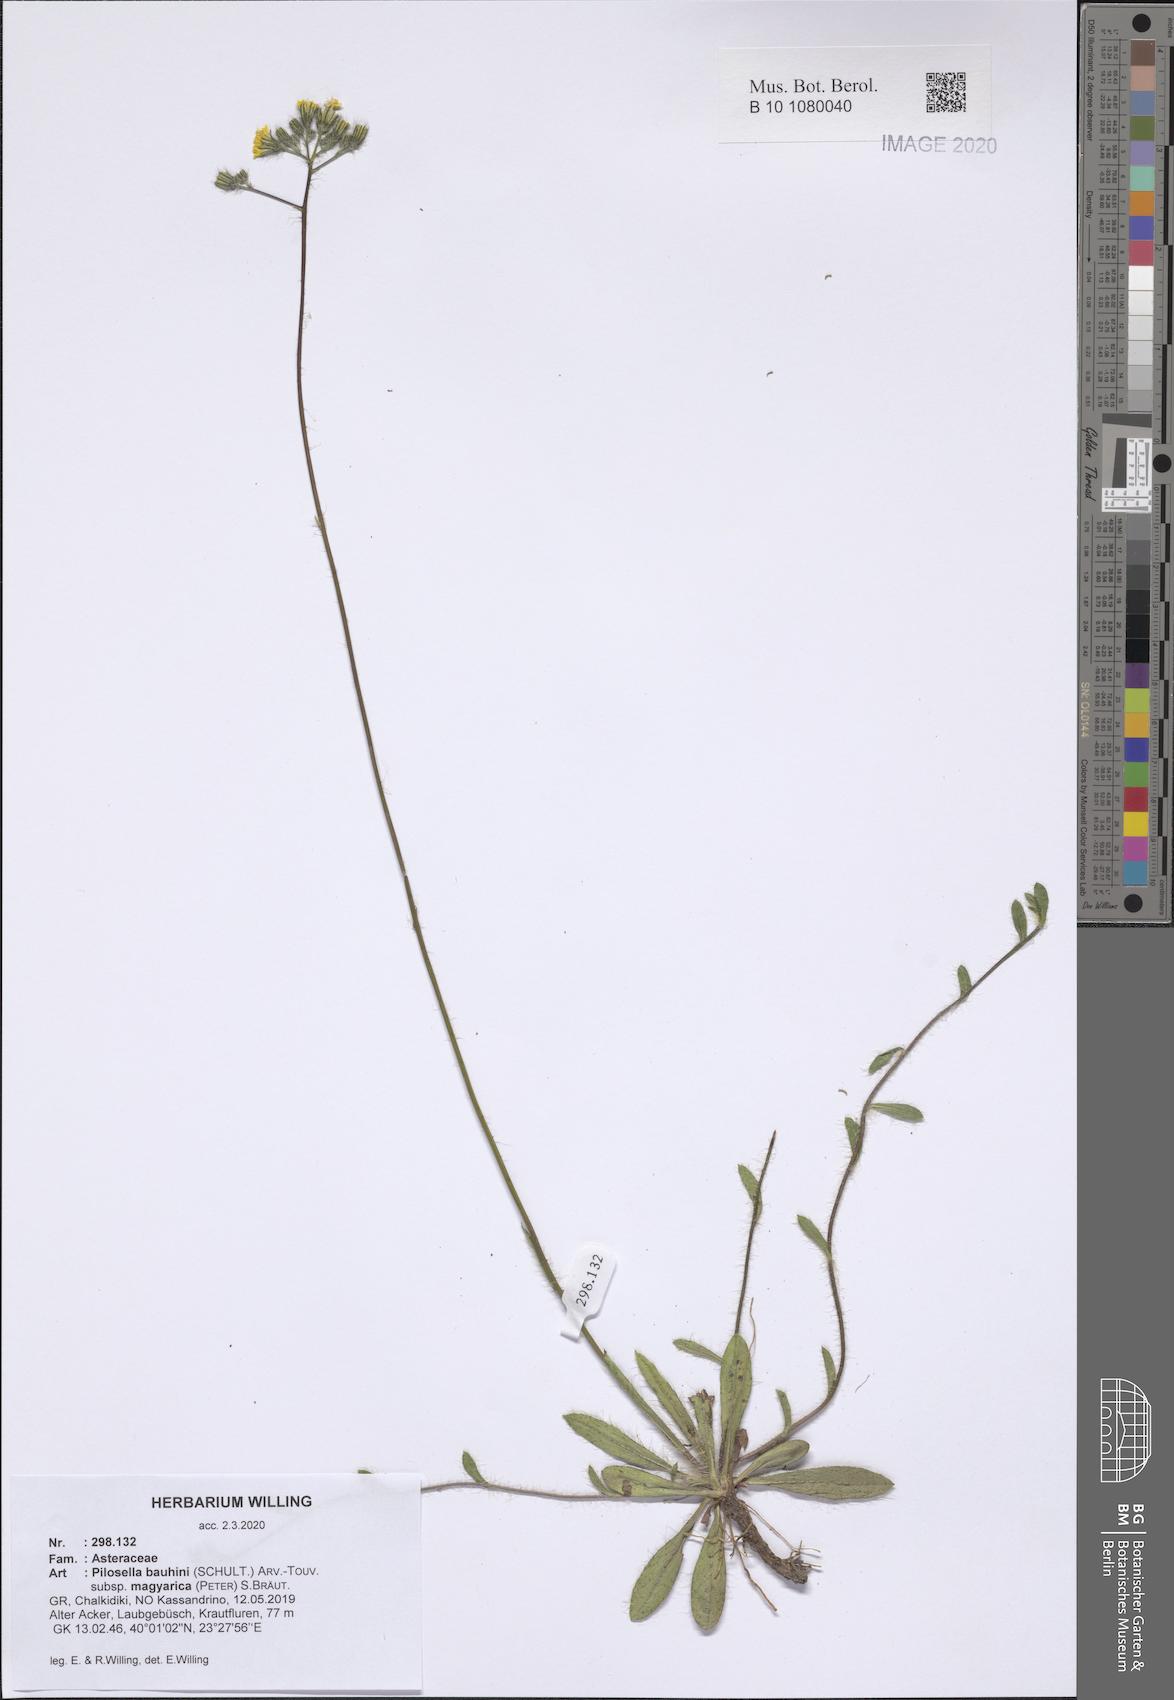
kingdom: Plantae
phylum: Tracheophyta
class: Magnoliopsida
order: Asterales
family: Asteraceae
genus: Pilosella
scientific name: Pilosella bauhini
